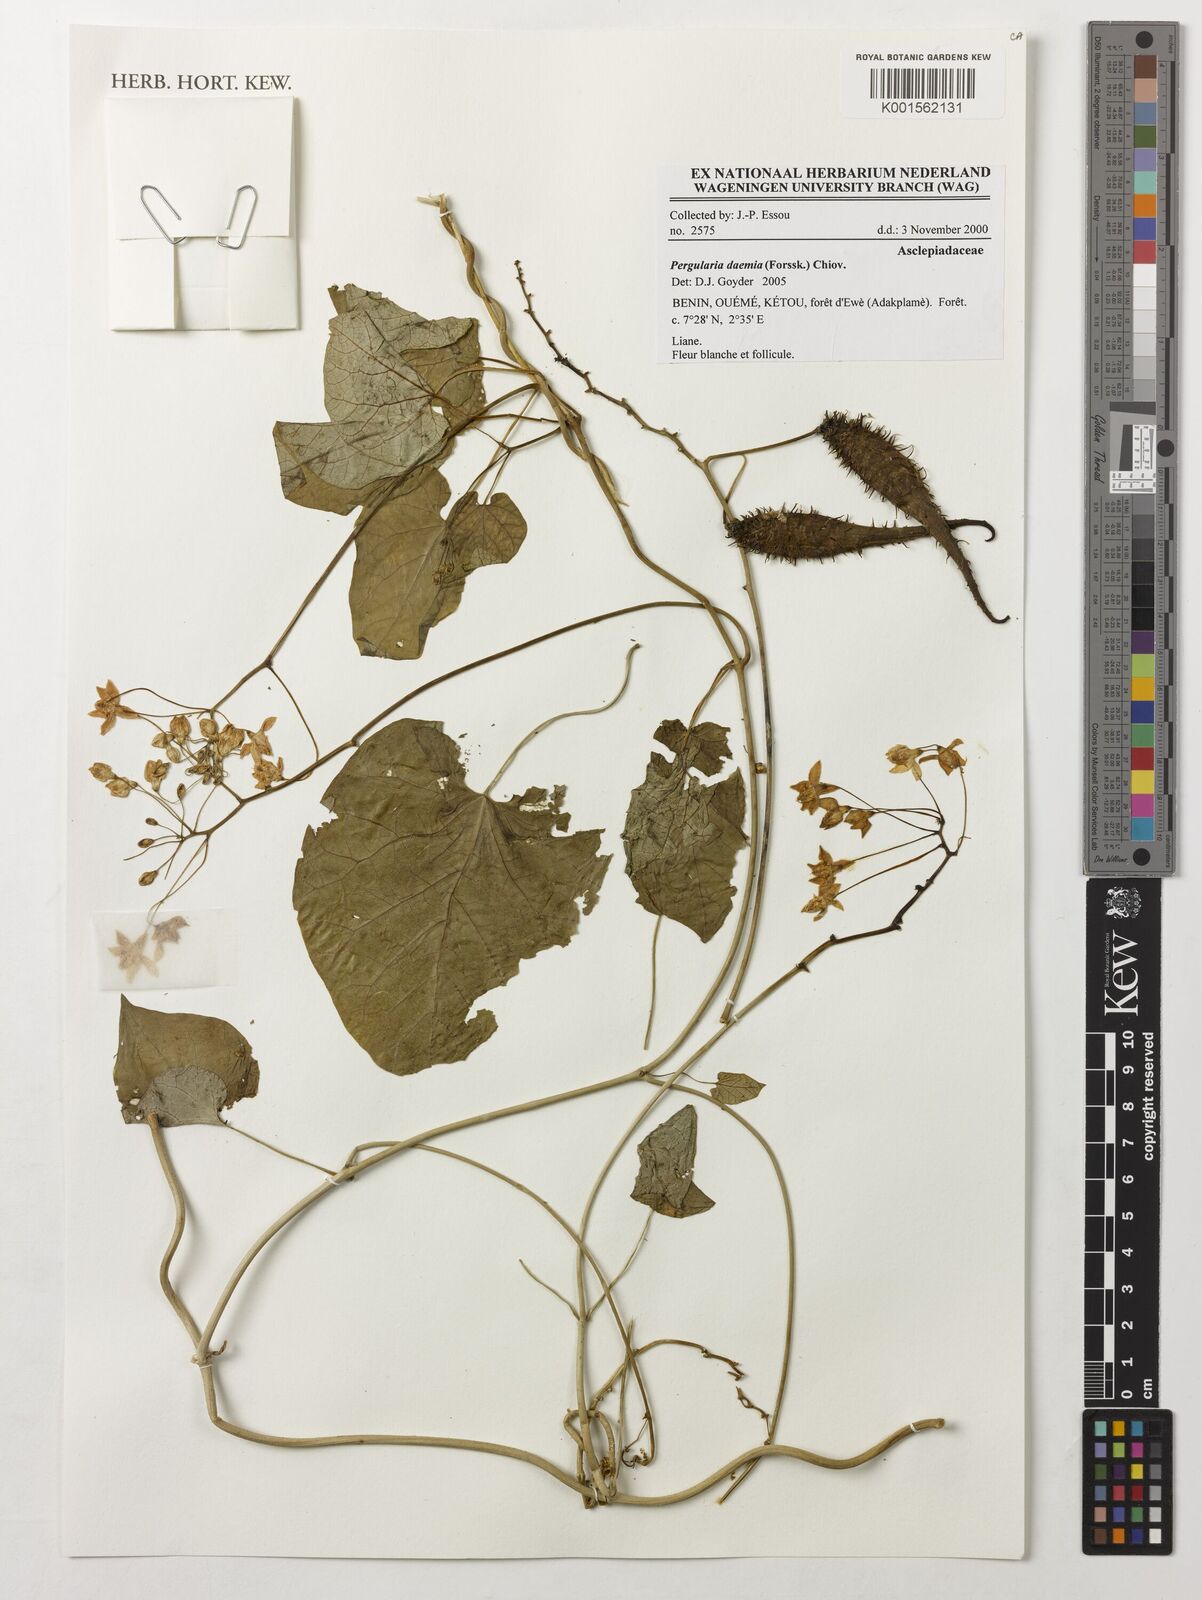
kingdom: Plantae
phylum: Tracheophyta
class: Magnoliopsida
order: Gentianales
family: Apocynaceae
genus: Pergularia
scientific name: Pergularia daemia
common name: Trellis-vine
